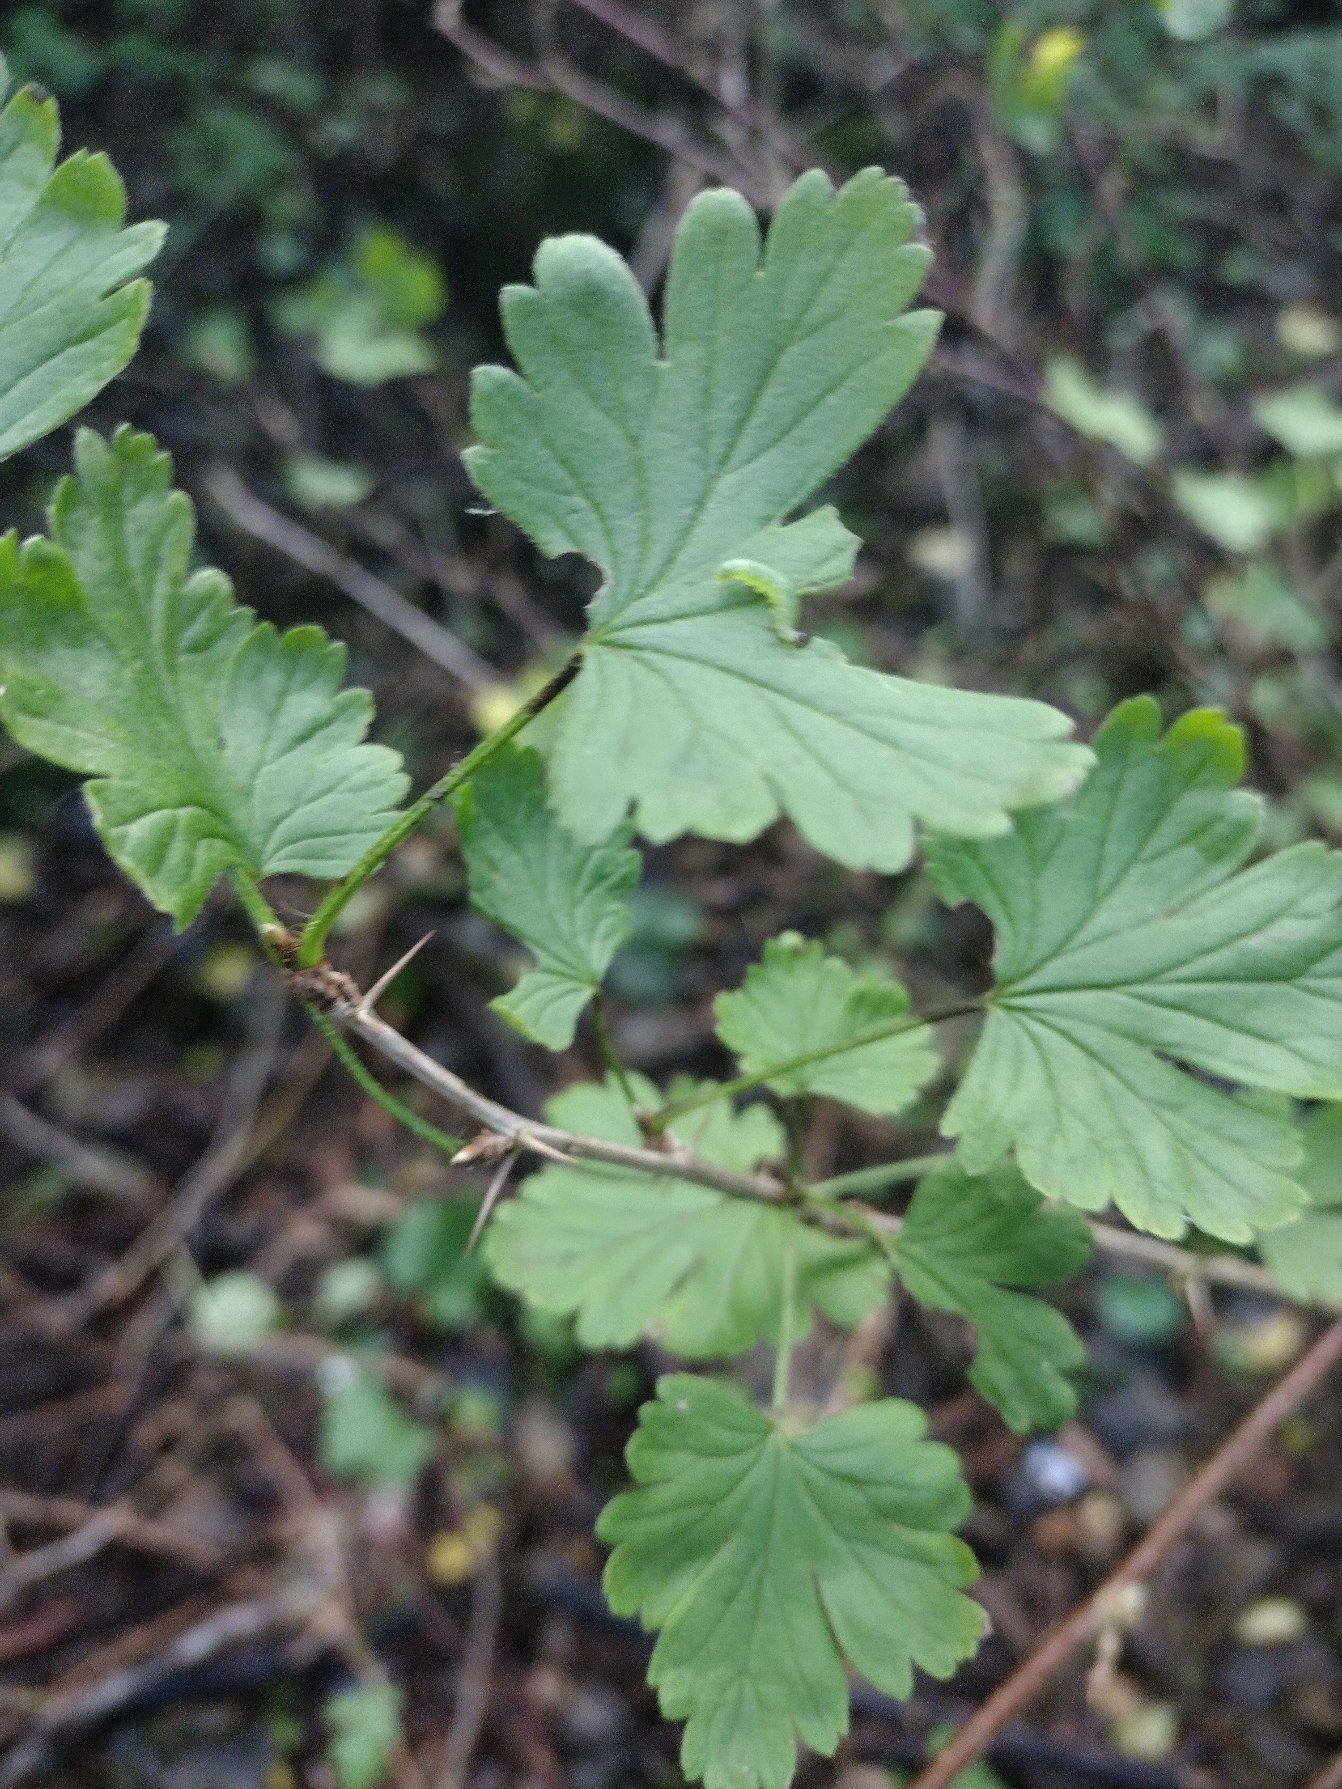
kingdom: Plantae
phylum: Tracheophyta
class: Magnoliopsida
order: Saxifragales
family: Grossulariaceae
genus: Ribes
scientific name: Ribes uva-crispa
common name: Stikkelsbær
